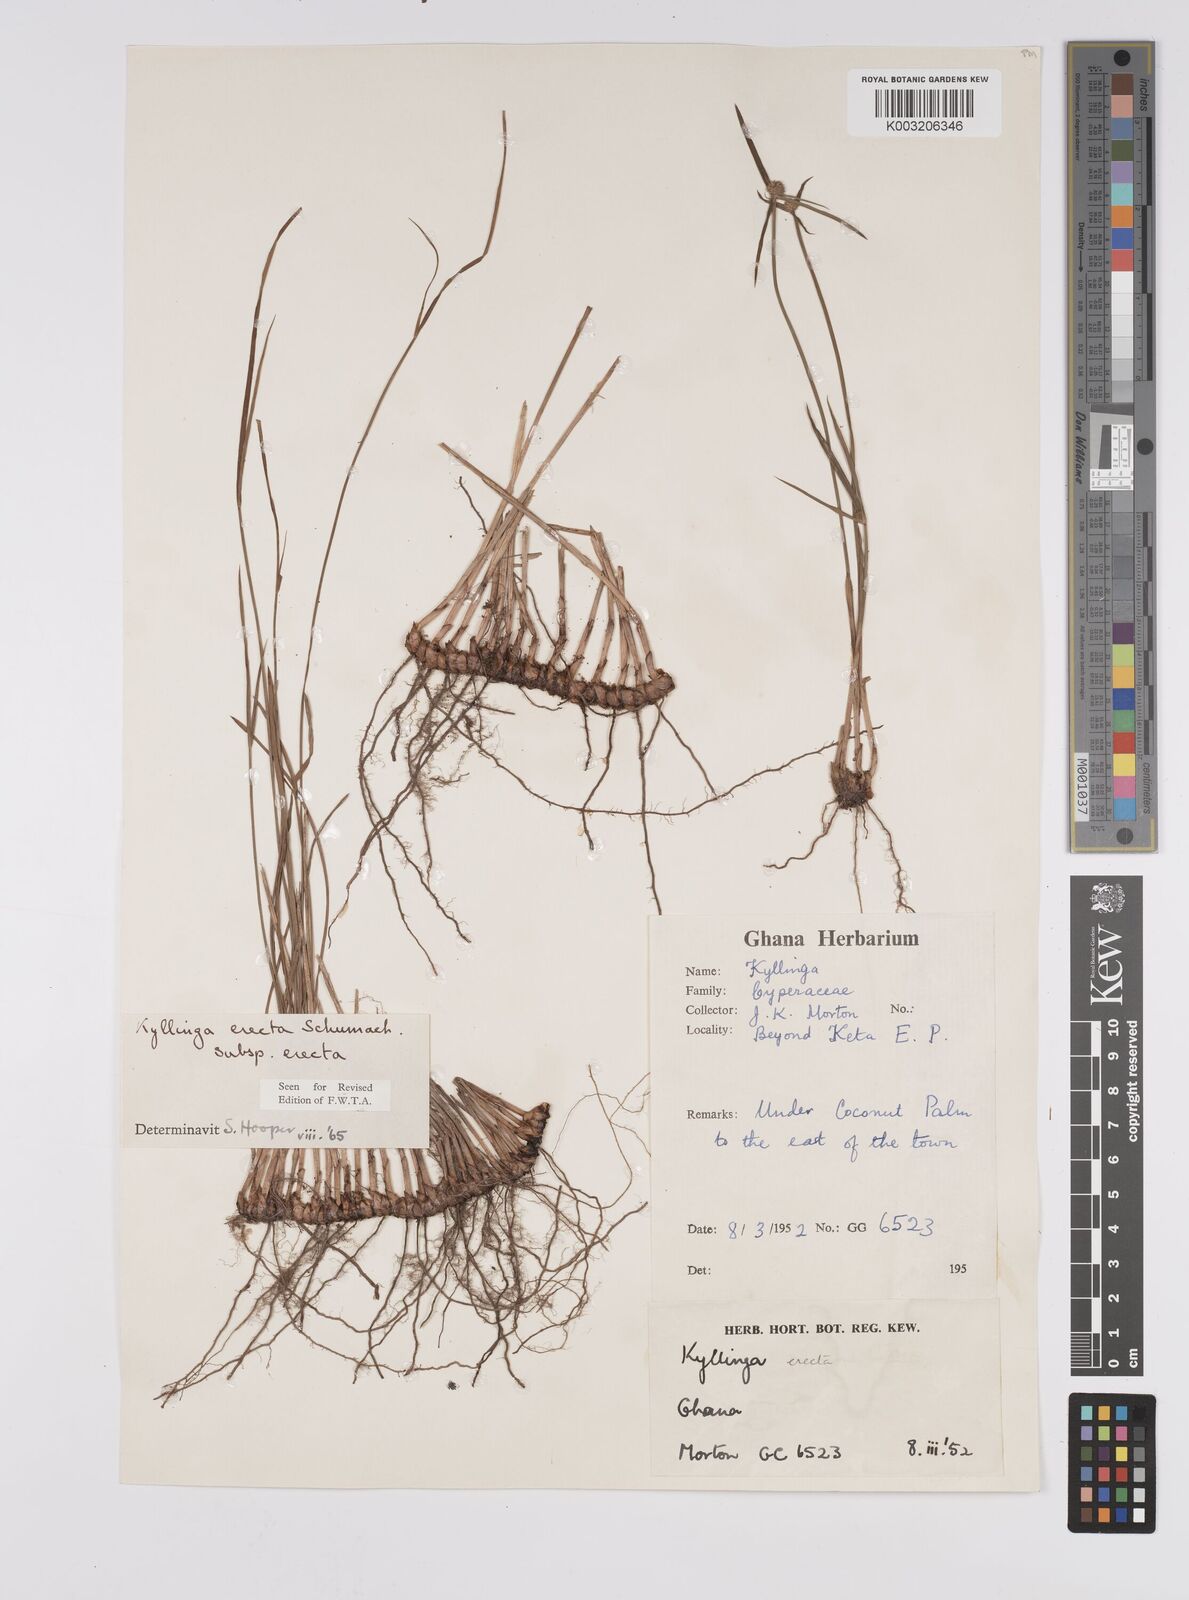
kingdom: Plantae
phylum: Tracheophyta
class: Liliopsida
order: Poales
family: Cyperaceae
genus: Cyperus
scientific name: Cyperus erectus
